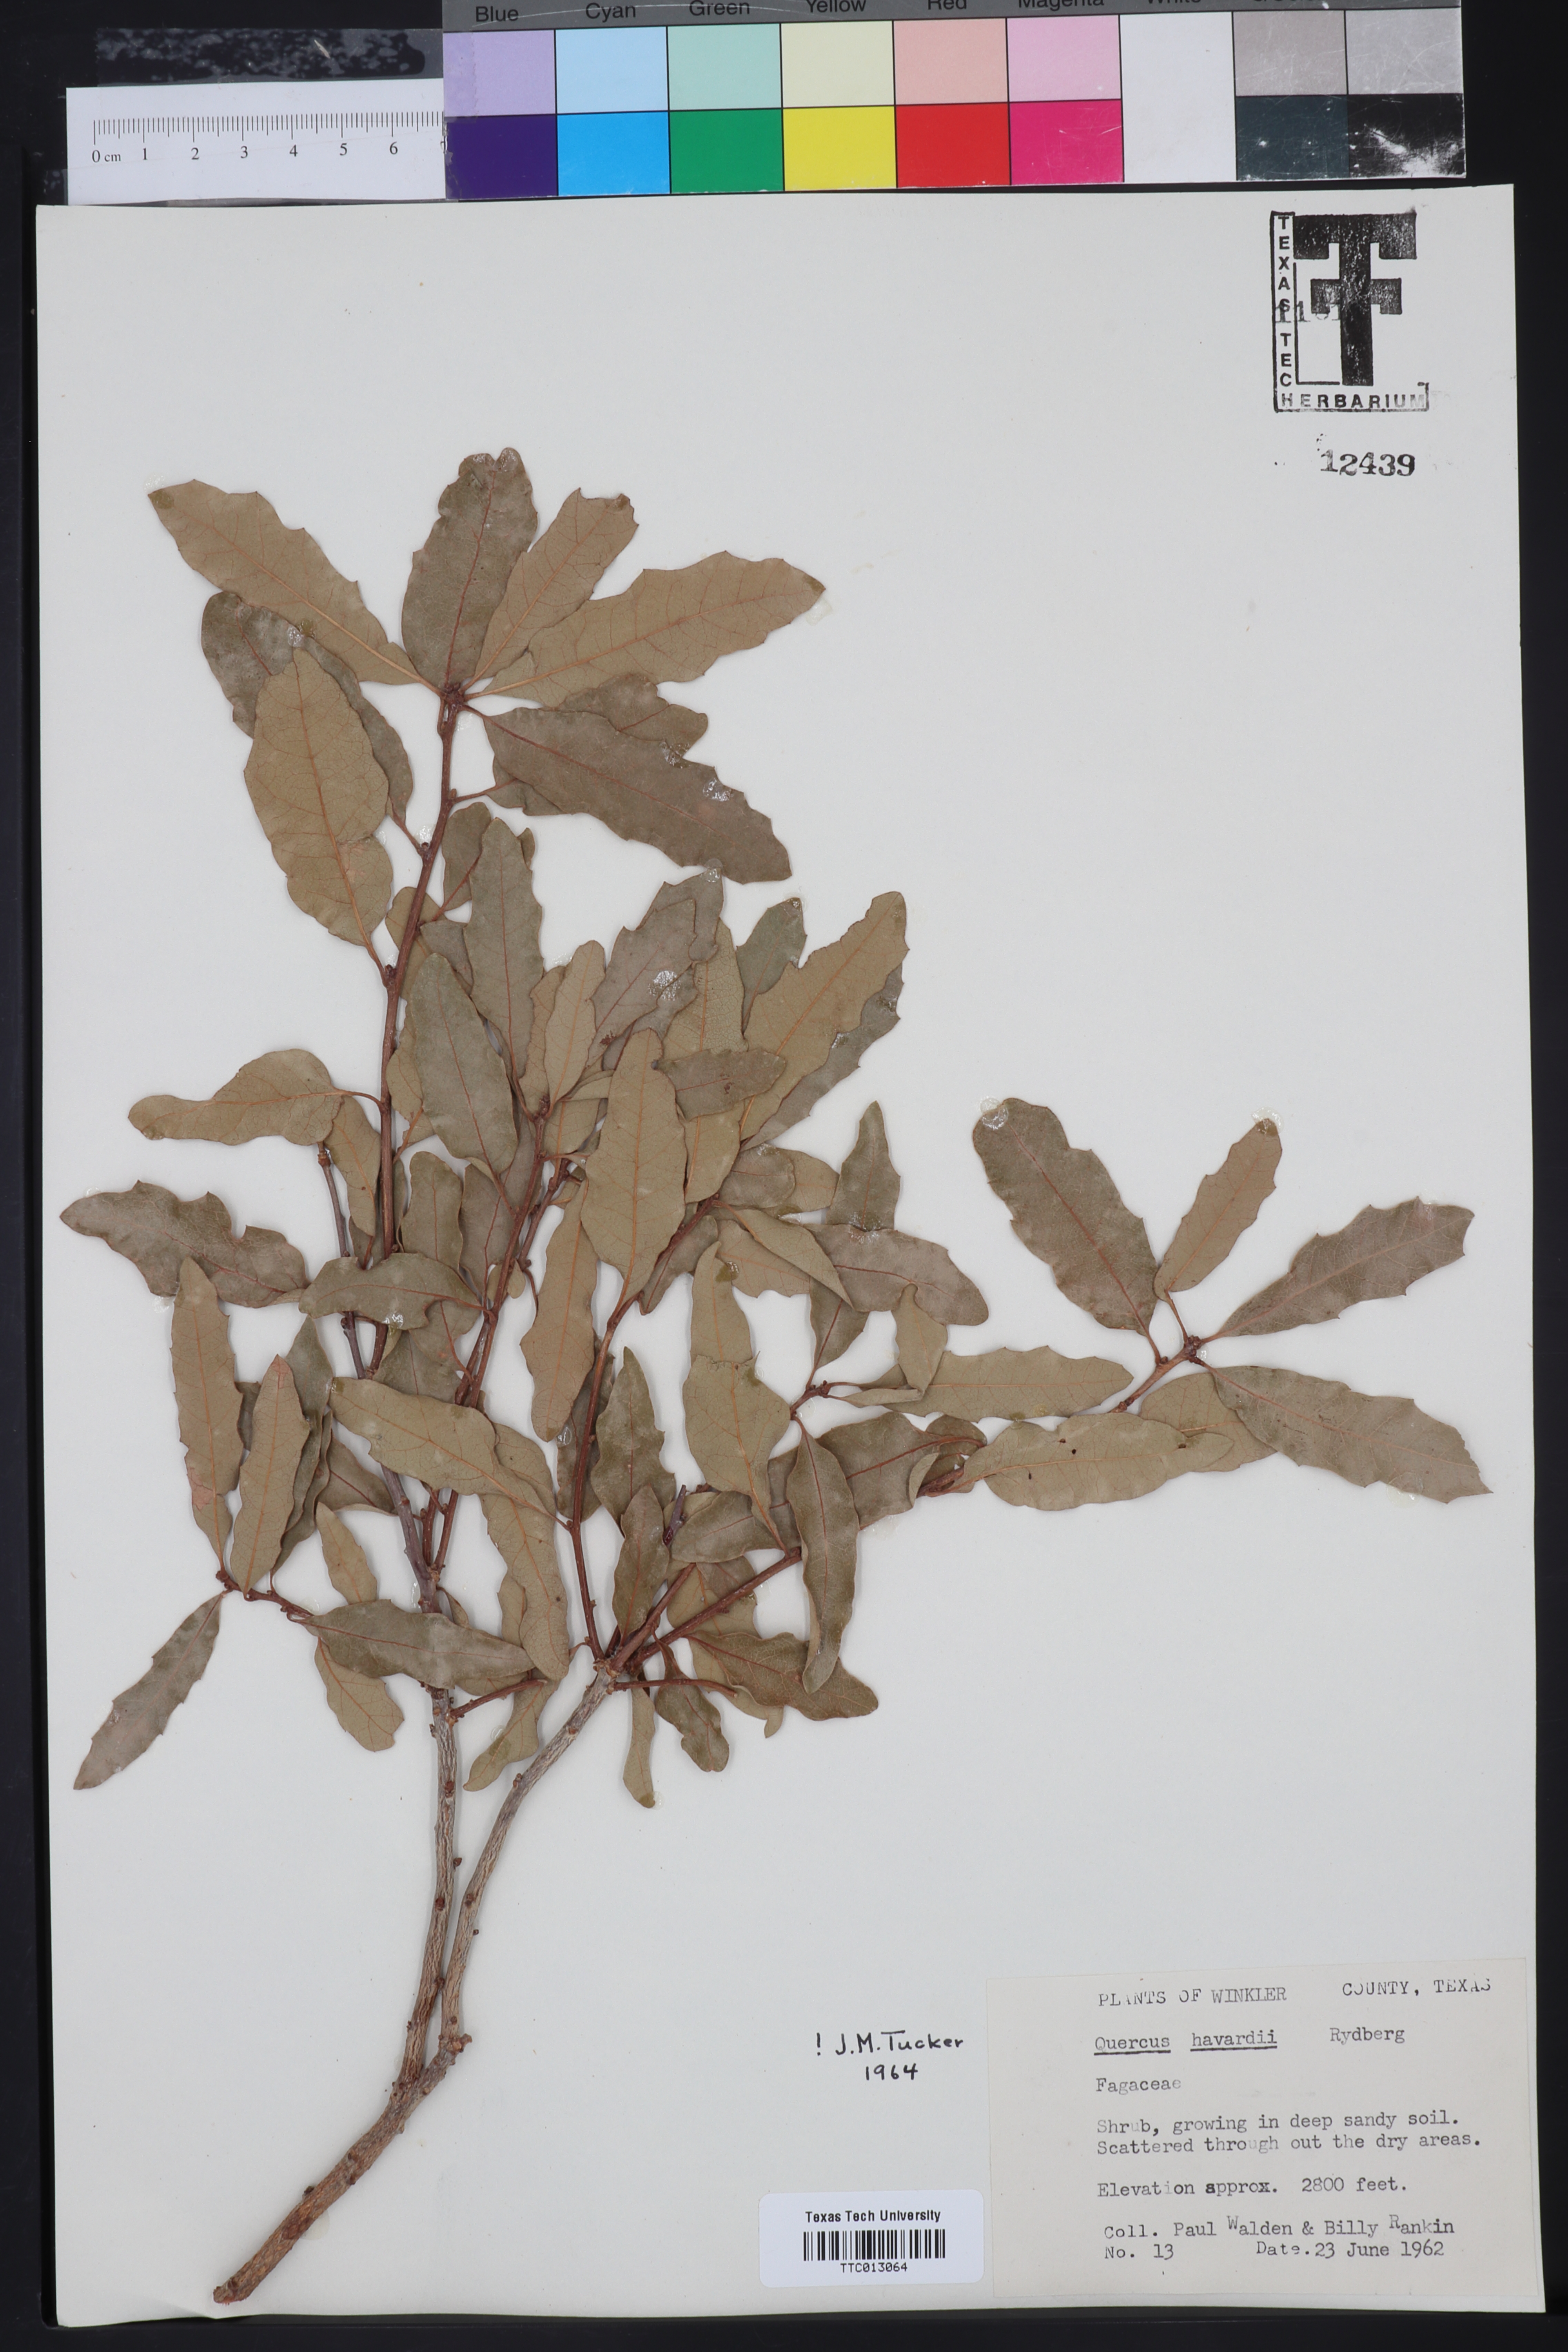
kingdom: Plantae
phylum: Tracheophyta
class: Magnoliopsida
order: Fagales
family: Fagaceae
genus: Quercus
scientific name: Quercus havardii
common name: Shinnery oak
